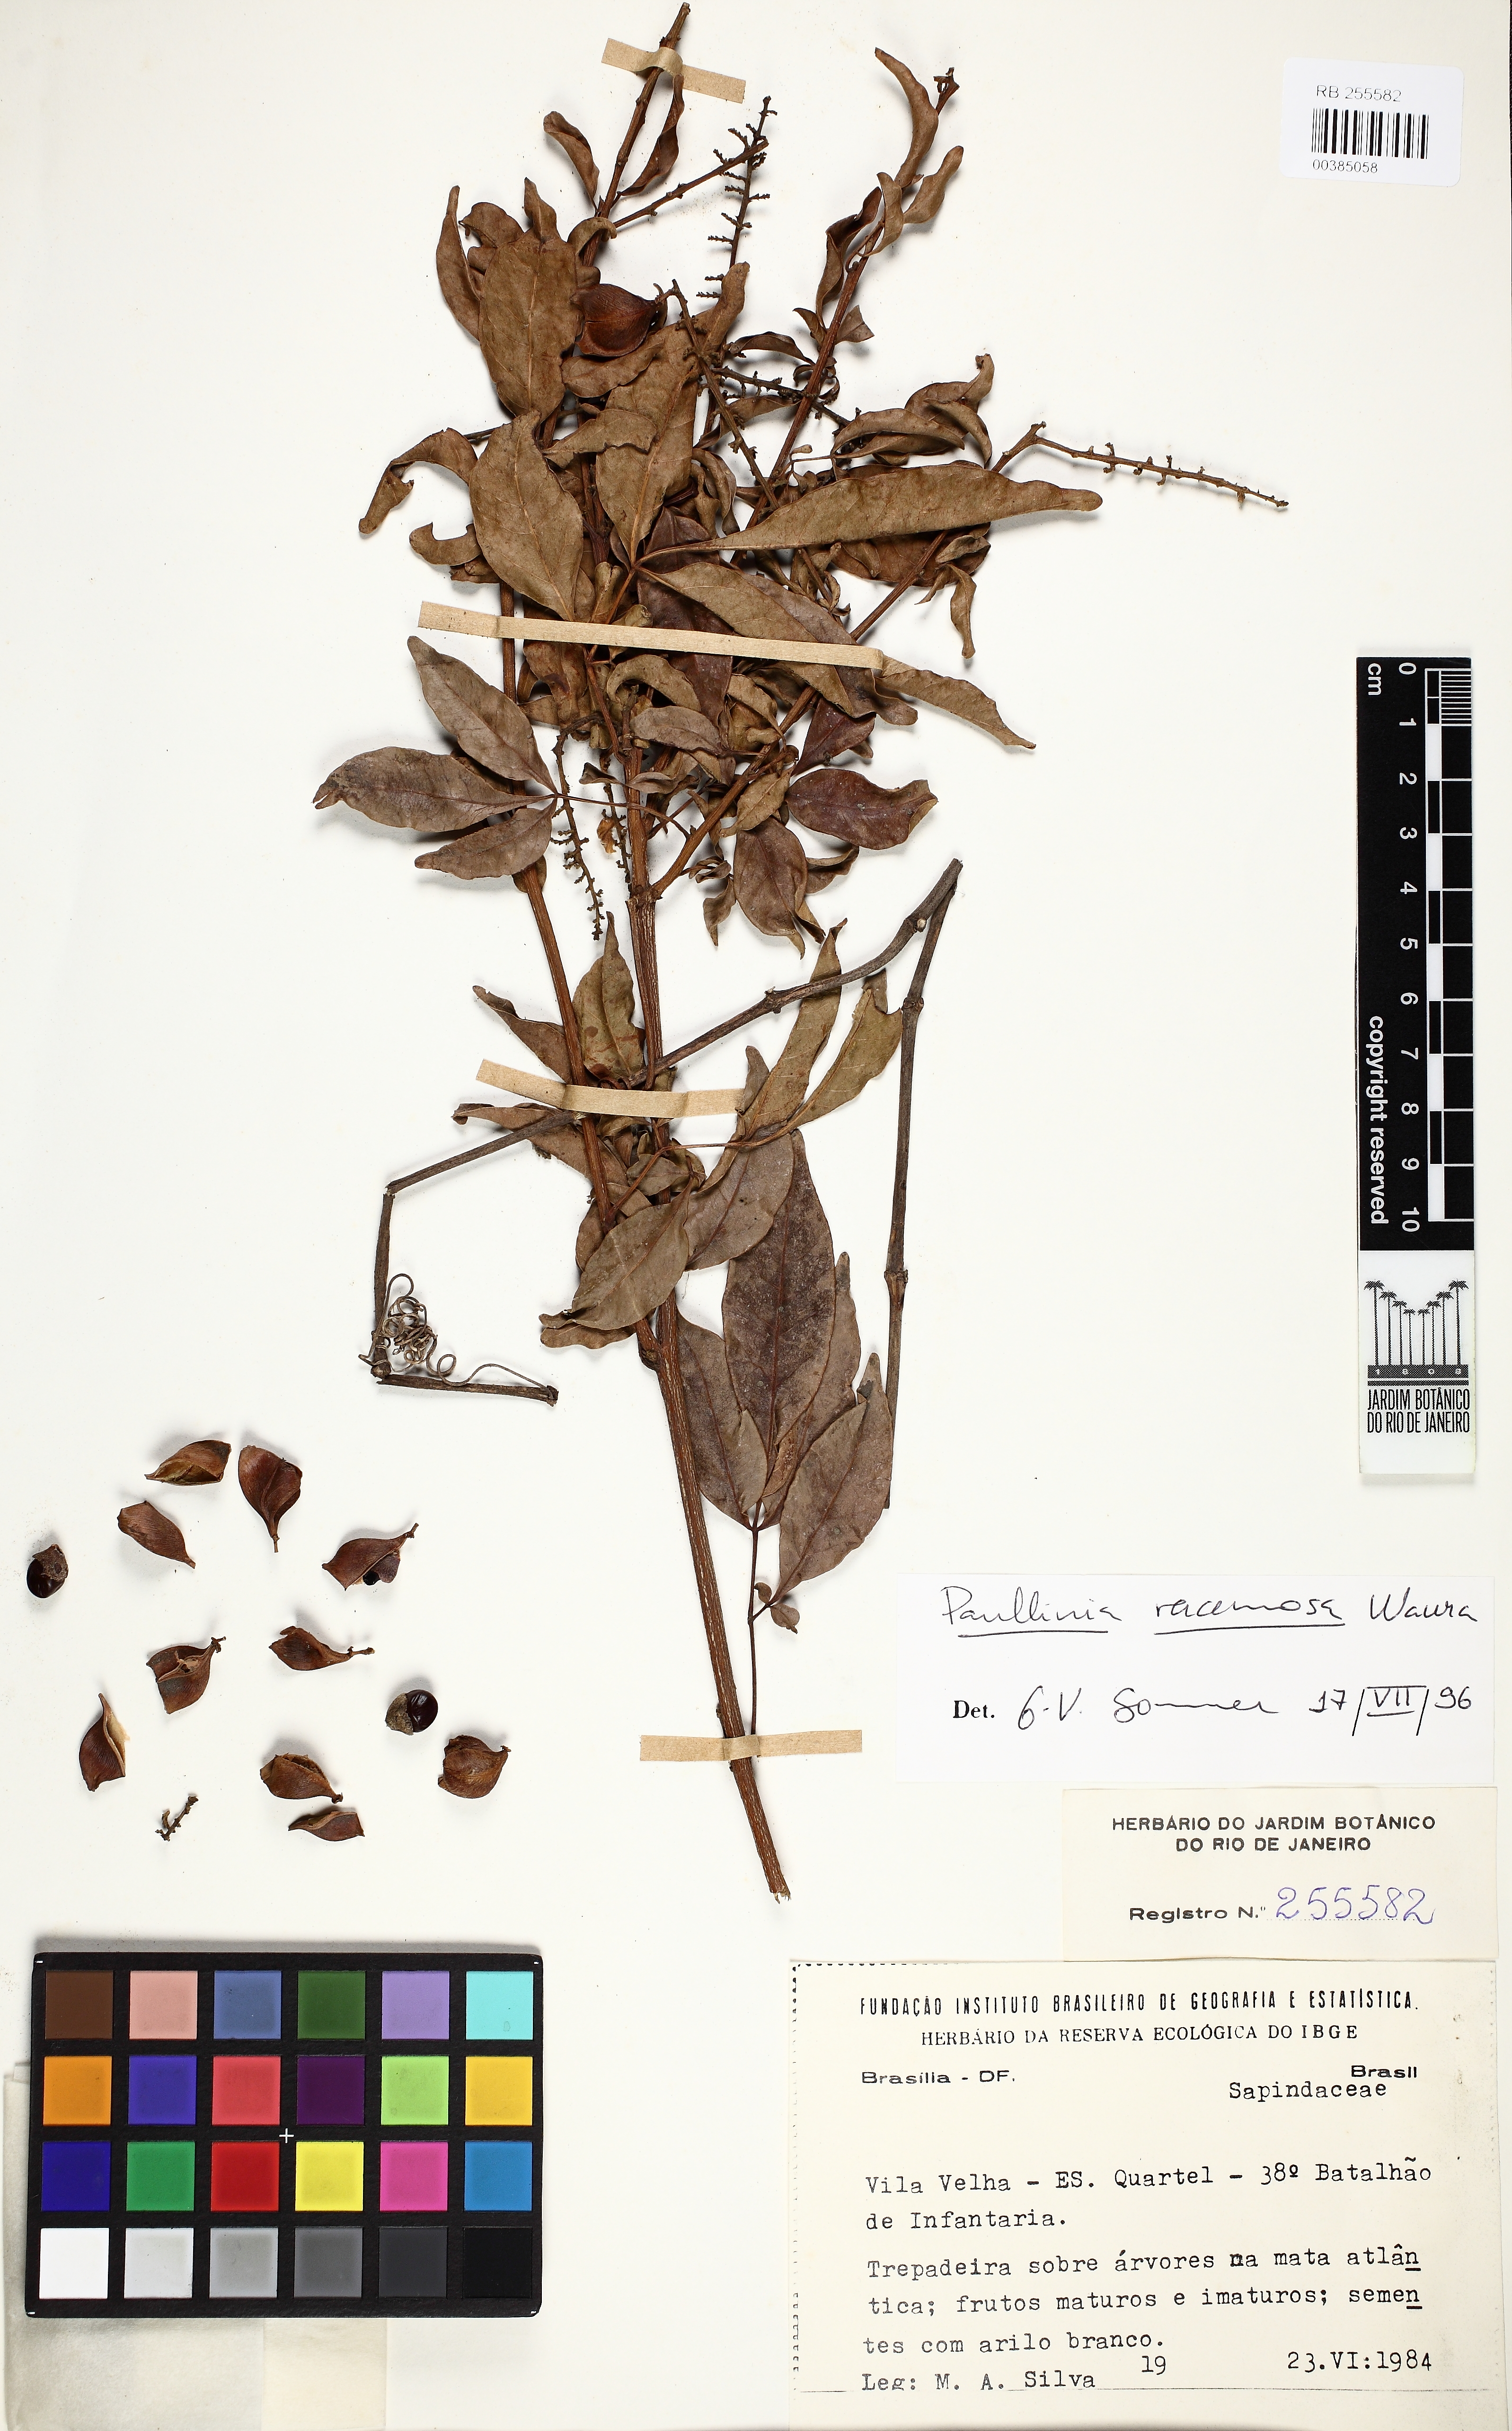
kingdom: Plantae
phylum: Tracheophyta
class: Magnoliopsida
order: Sapindales
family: Sapindaceae
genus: Paullinia
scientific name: Paullinia racemosa
